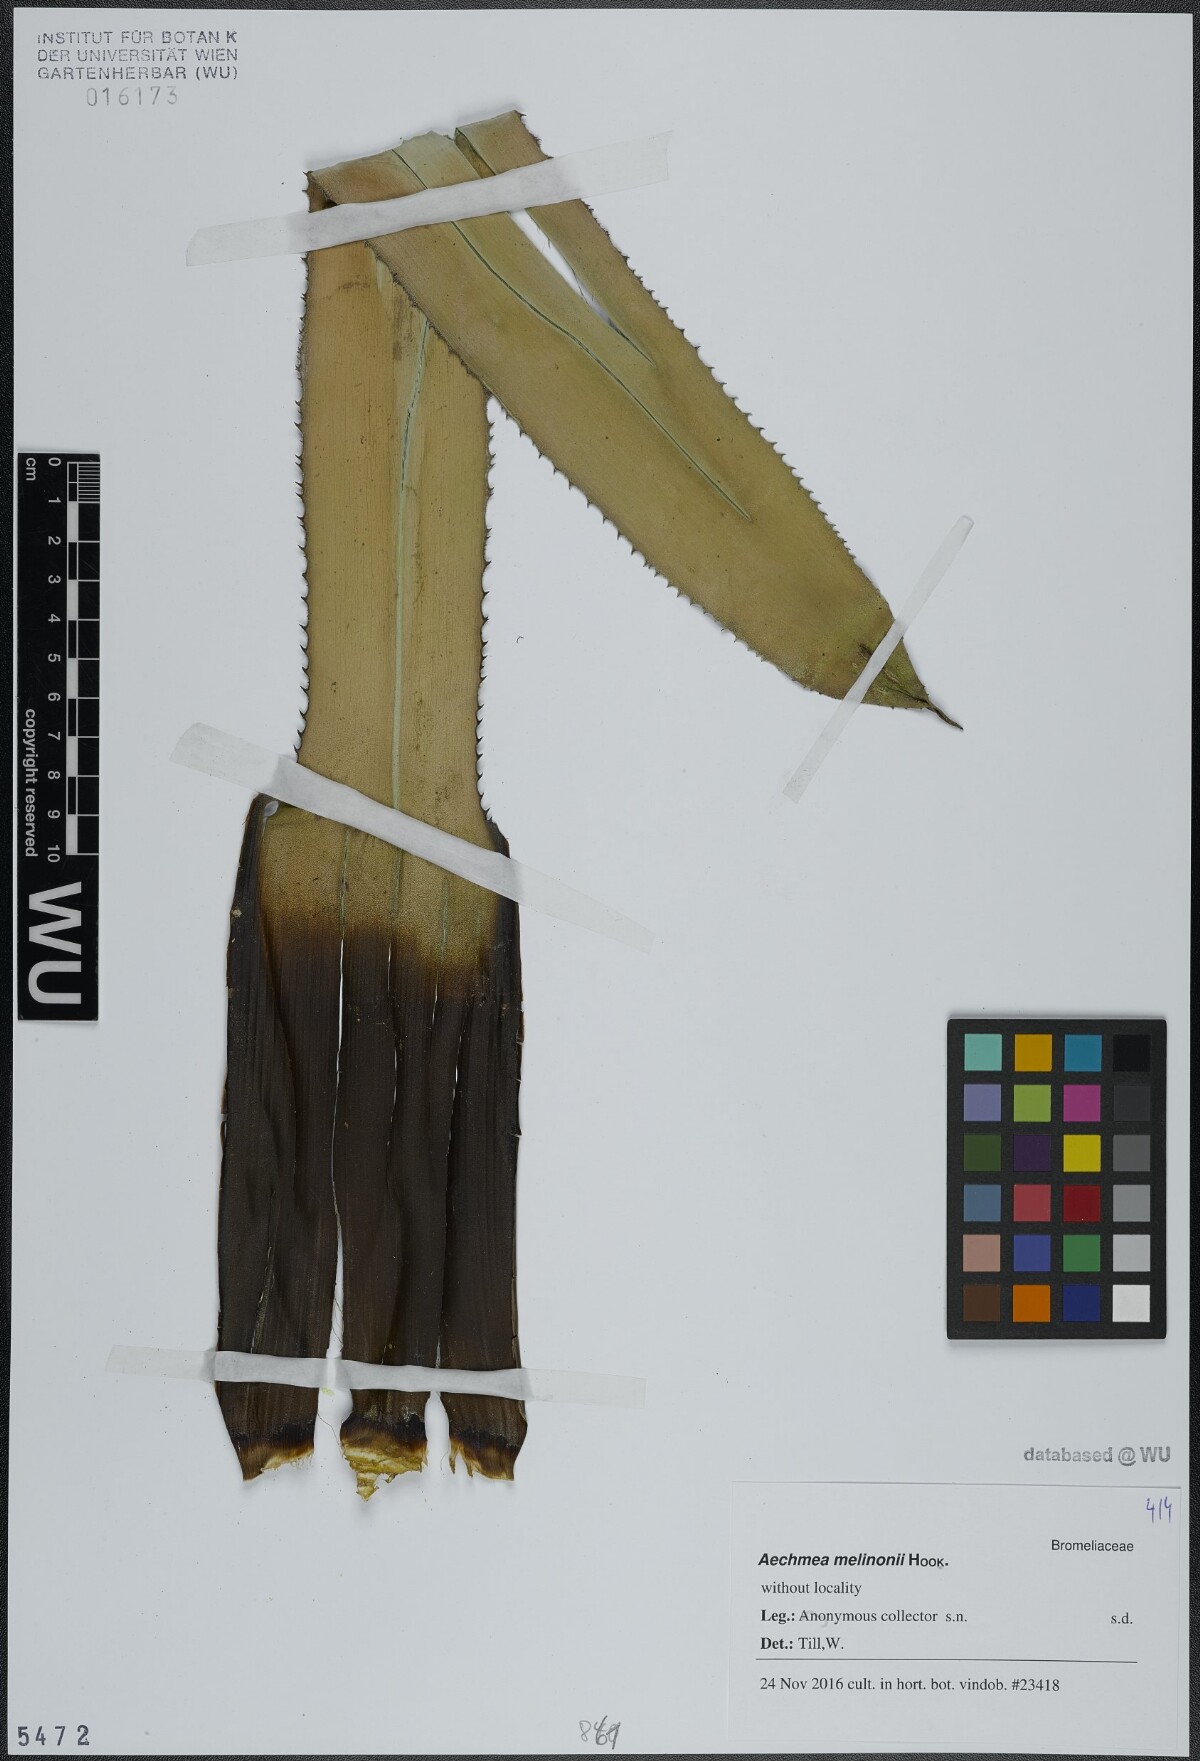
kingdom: Plantae
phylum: Tracheophyta
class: Liliopsida
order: Poales
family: Bromeliaceae
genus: Aechmea
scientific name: Aechmea melinonii
